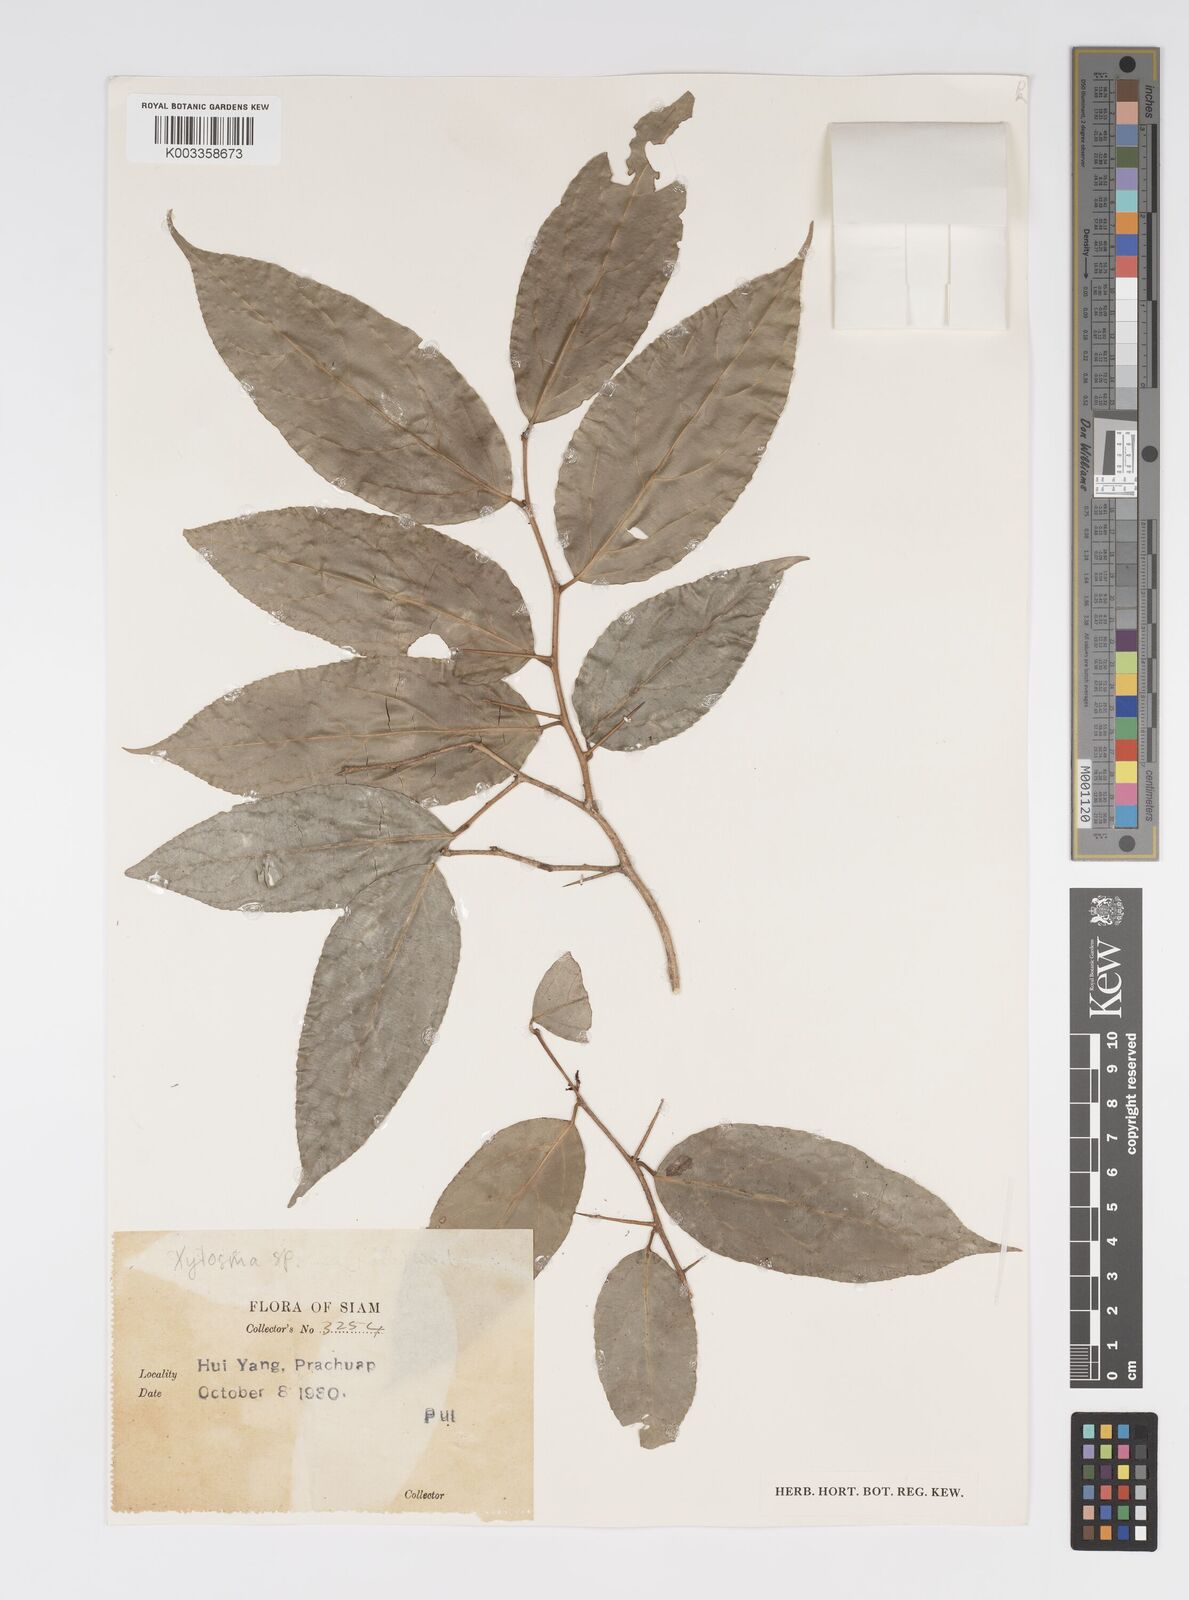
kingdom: Plantae
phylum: Tracheophyta
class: Magnoliopsida
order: Malpighiales
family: Salicaceae
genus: Xylosma
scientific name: Xylosma
